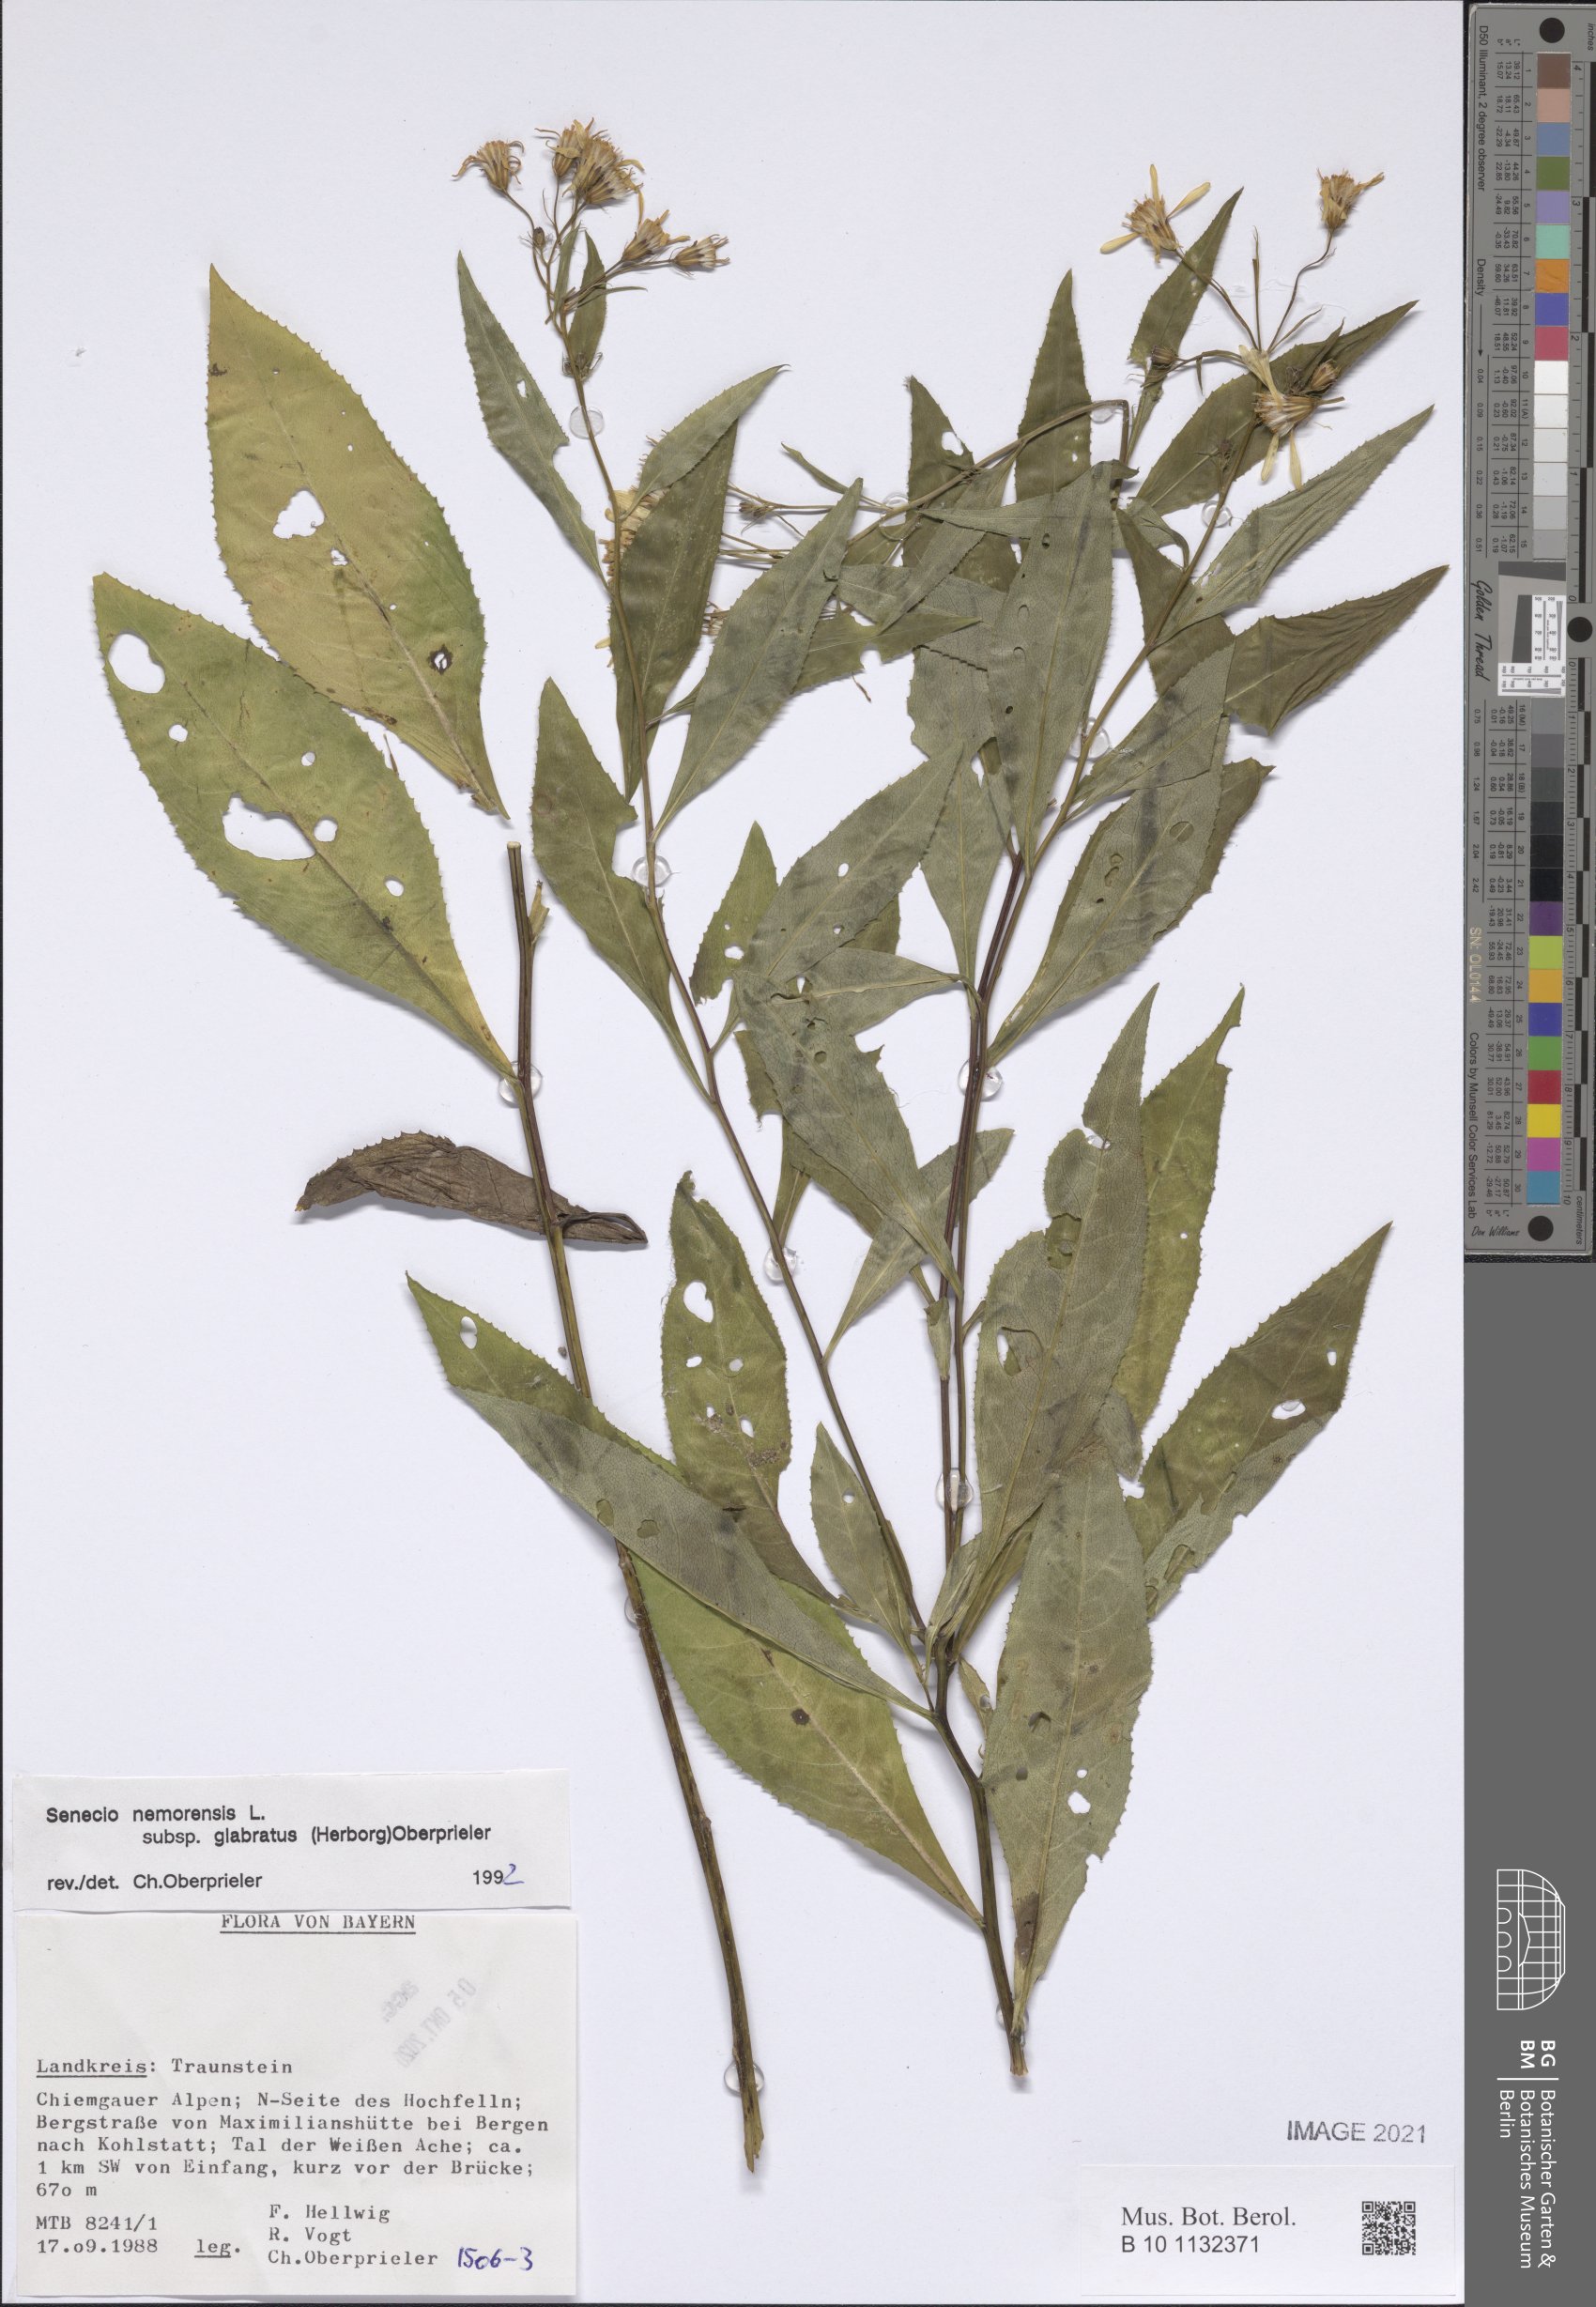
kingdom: Plantae
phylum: Tracheophyta
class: Magnoliopsida
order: Asterales
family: Asteraceae
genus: Senecio
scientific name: Senecio germanicus
